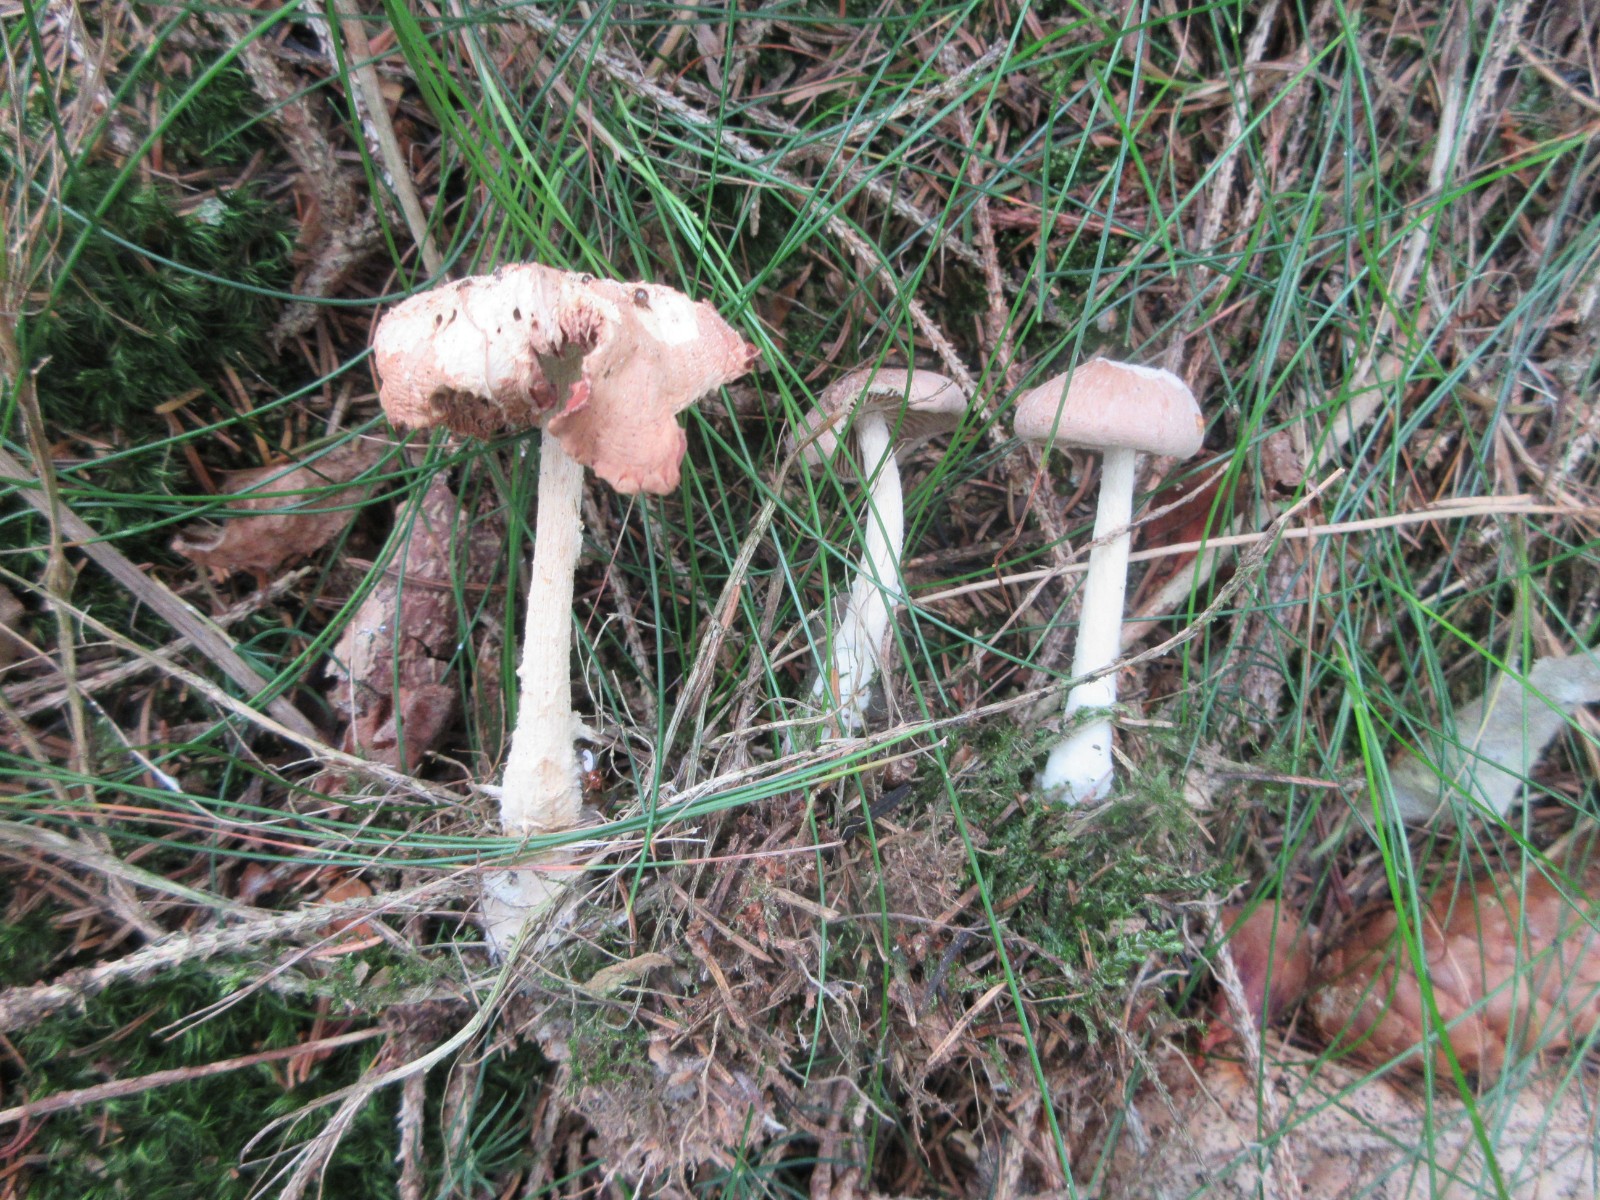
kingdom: Fungi
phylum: Basidiomycota
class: Agaricomycetes
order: Agaricales
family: Omphalotaceae
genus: Collybiopsis
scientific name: Collybiopsis peronata
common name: bestøvlet fladhat
